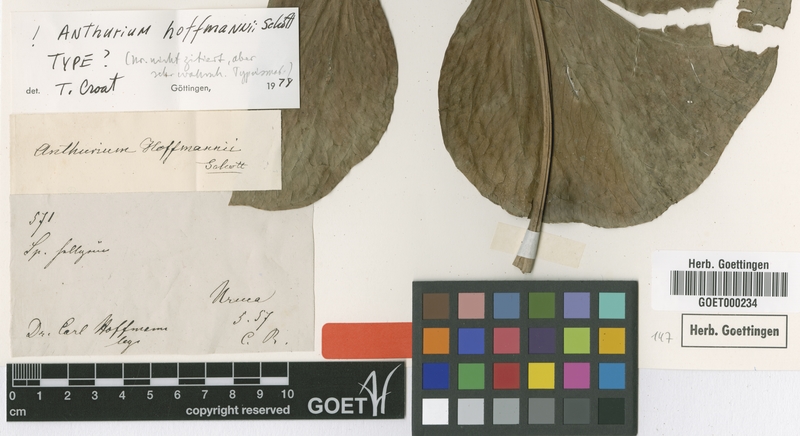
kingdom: Plantae
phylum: Tracheophyta
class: Liliopsida
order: Alismatales
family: Araceae
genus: Anthurium
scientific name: Anthurium hoffmannii
